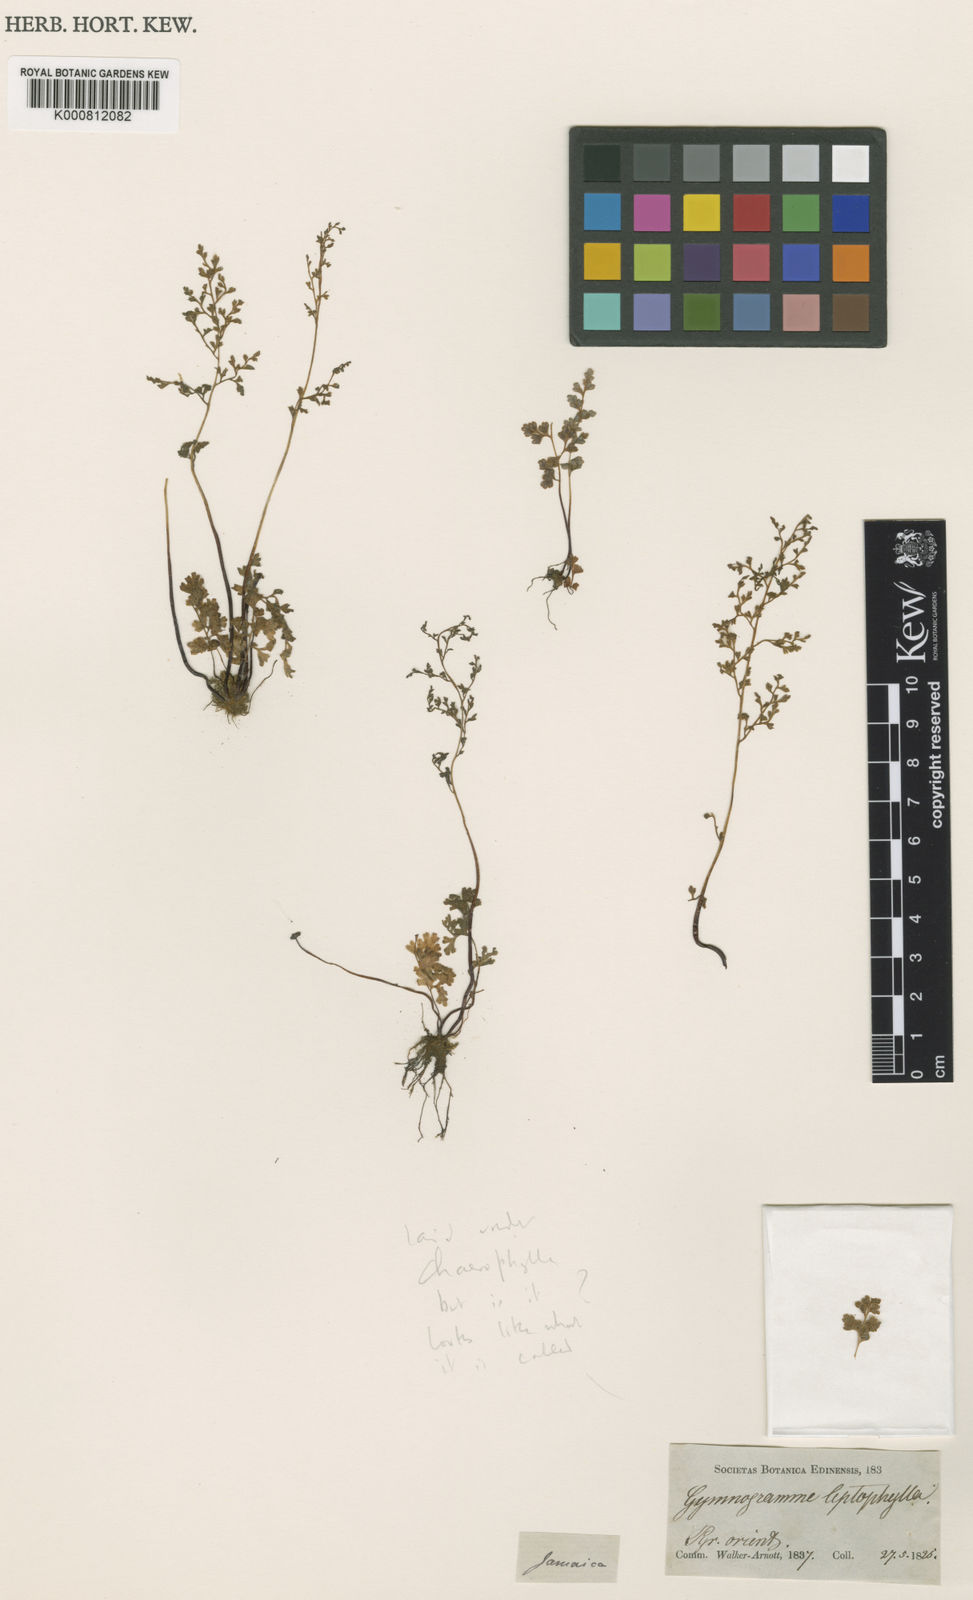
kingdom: Plantae
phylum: Tracheophyta
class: Polypodiopsida
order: Polypodiales
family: Pteridaceae
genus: Gastoniella
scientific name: Gastoniella chaerophylla
